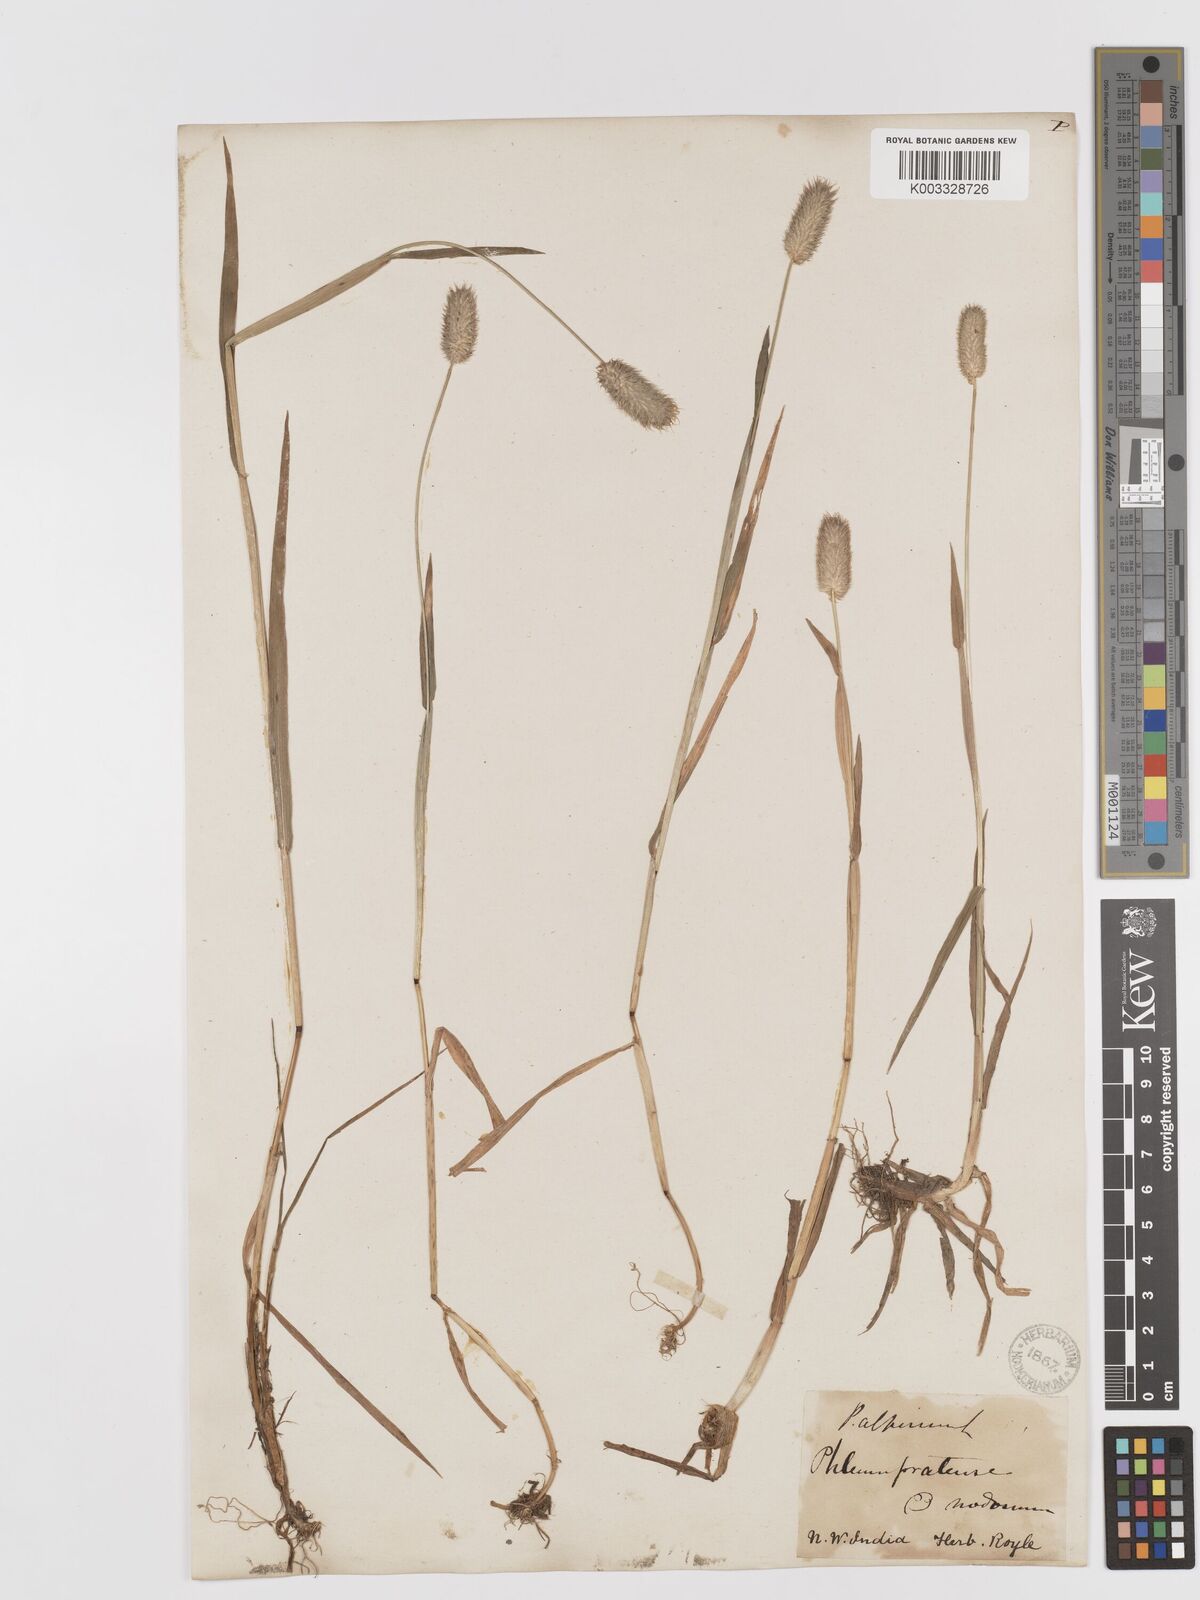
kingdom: Plantae
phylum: Tracheophyta
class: Liliopsida
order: Poales
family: Poaceae
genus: Phleum
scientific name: Phleum alpinum
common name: Alpine cat's-tail
